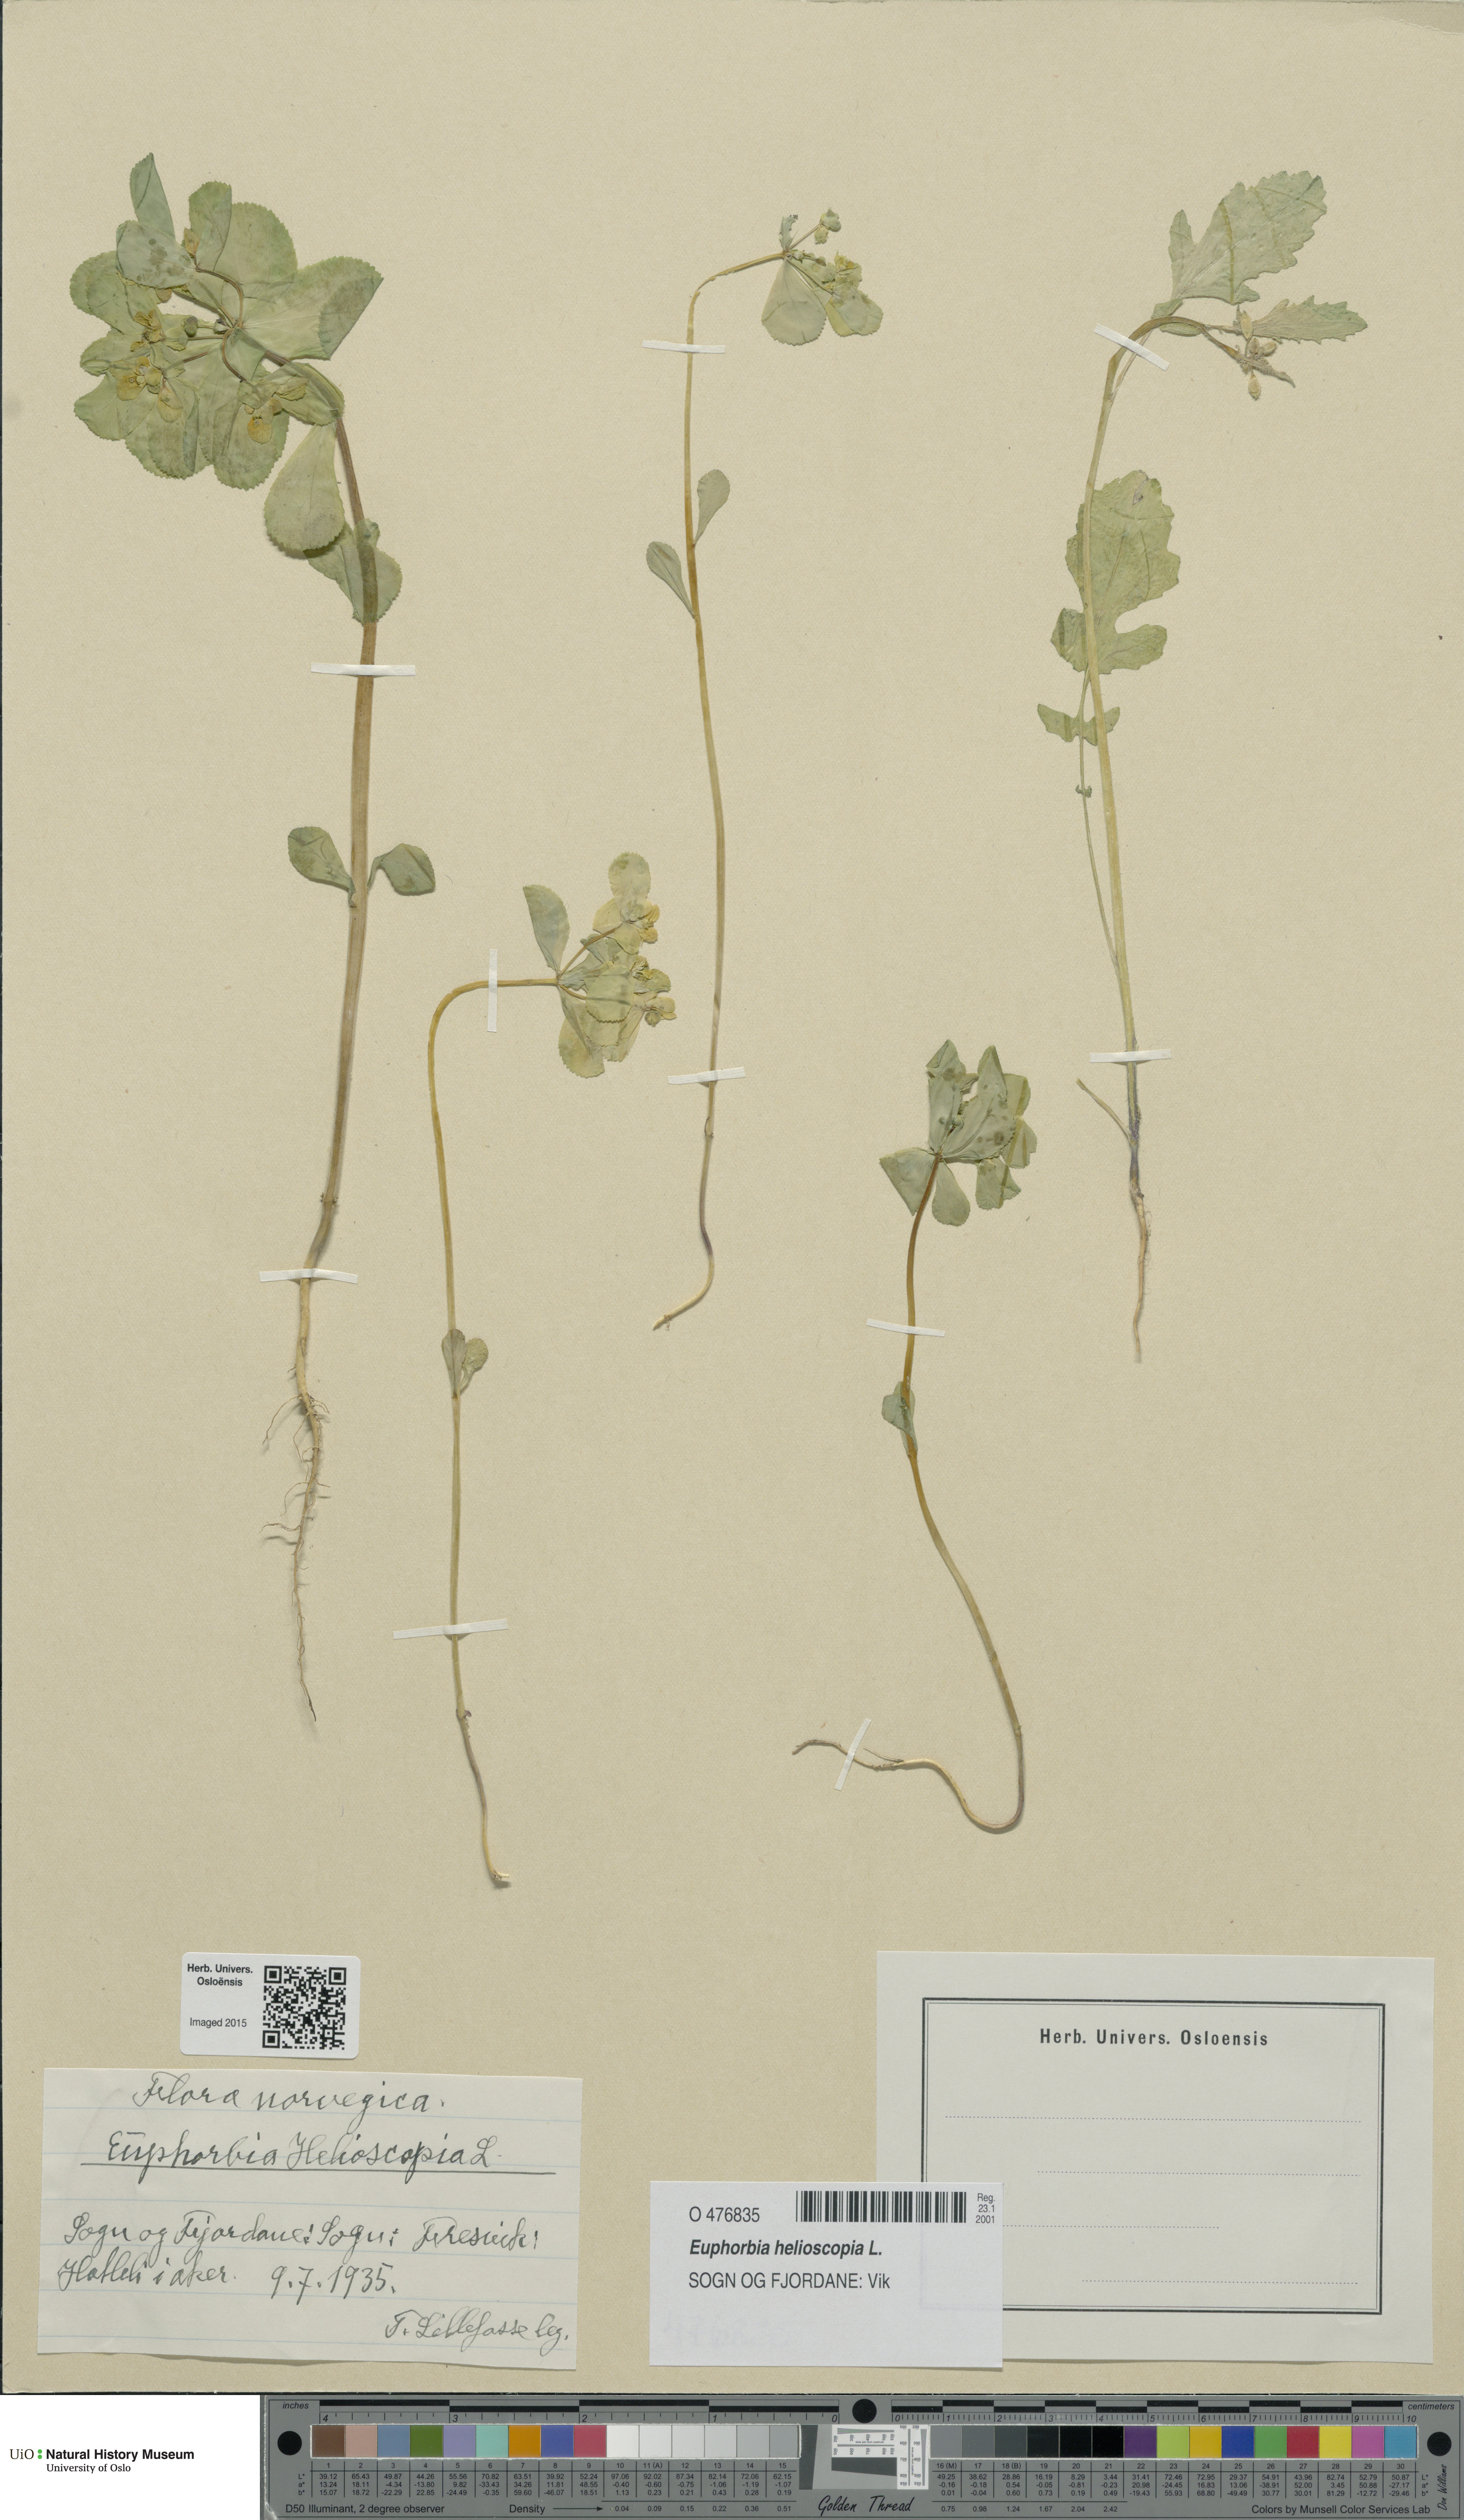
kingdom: Plantae
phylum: Tracheophyta
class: Magnoliopsida
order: Malpighiales
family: Euphorbiaceae
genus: Euphorbia
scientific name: Euphorbia helioscopia
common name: Sun spurge
